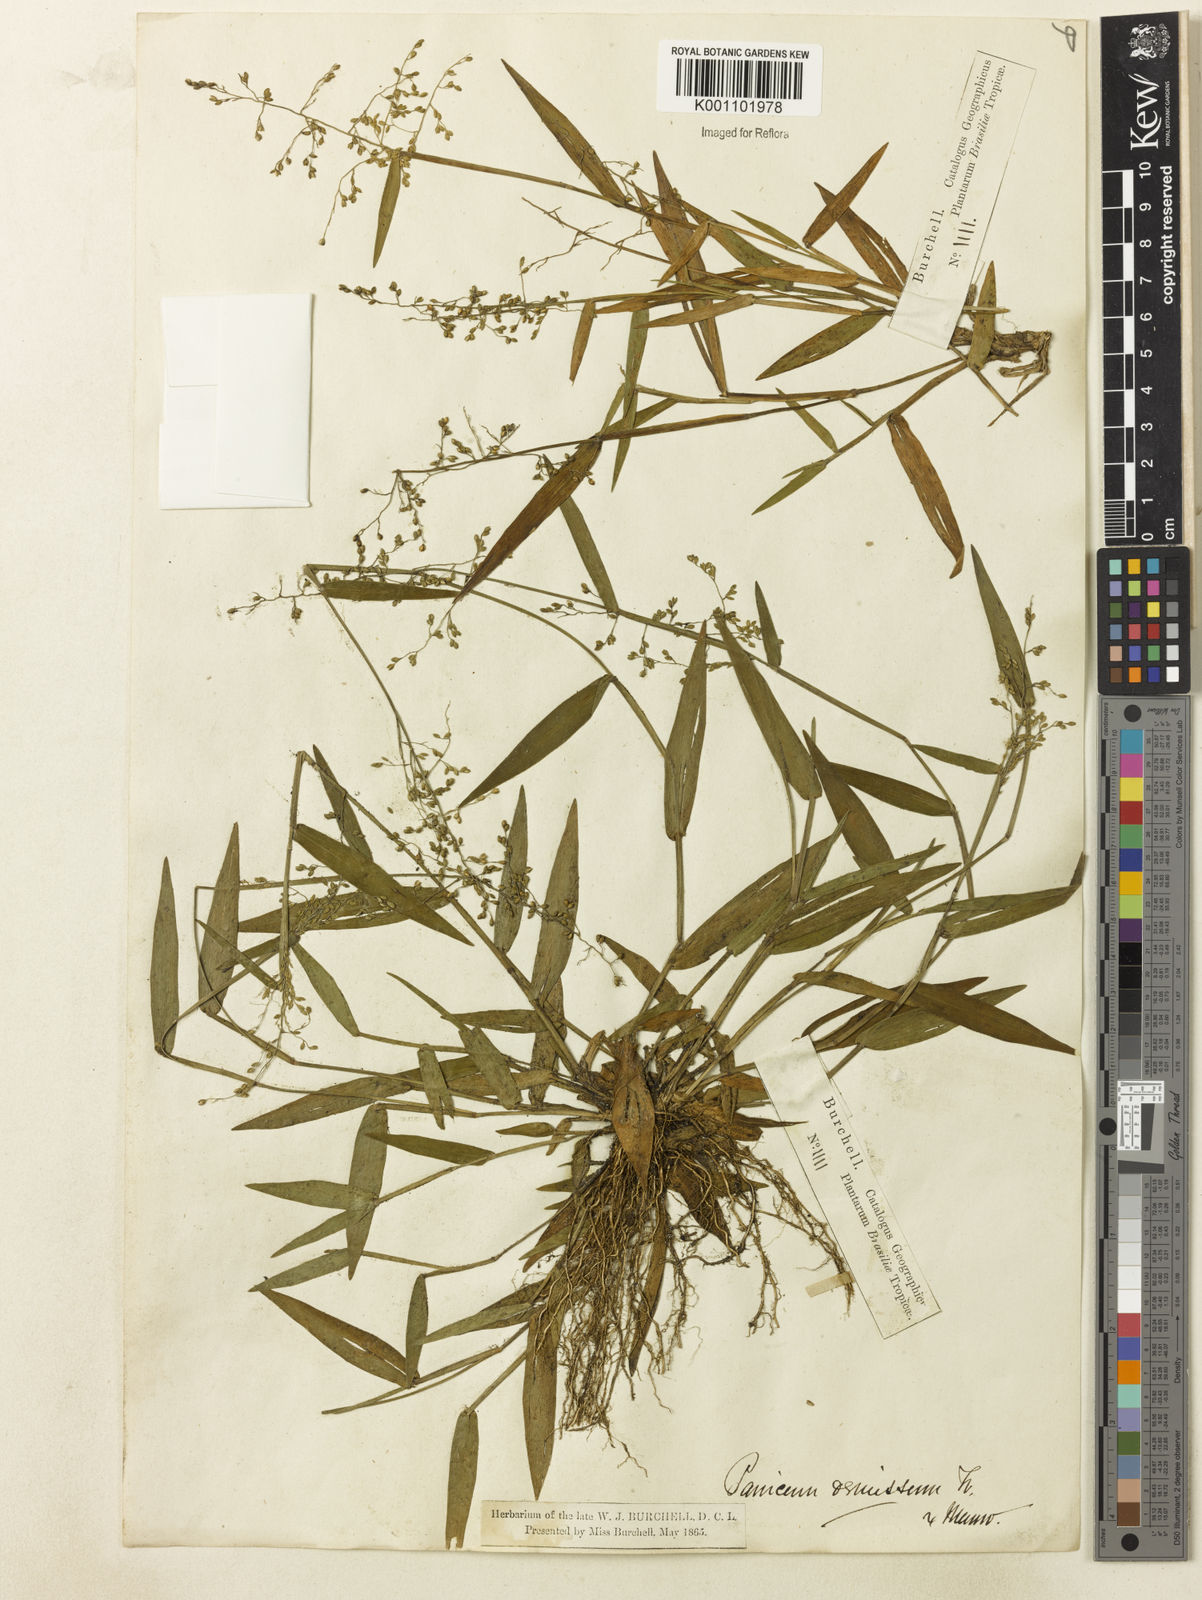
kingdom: Plantae
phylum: Tracheophyta
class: Liliopsida
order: Poales
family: Poaceae
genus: Dichanthelium
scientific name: Dichanthelium sabulorum
